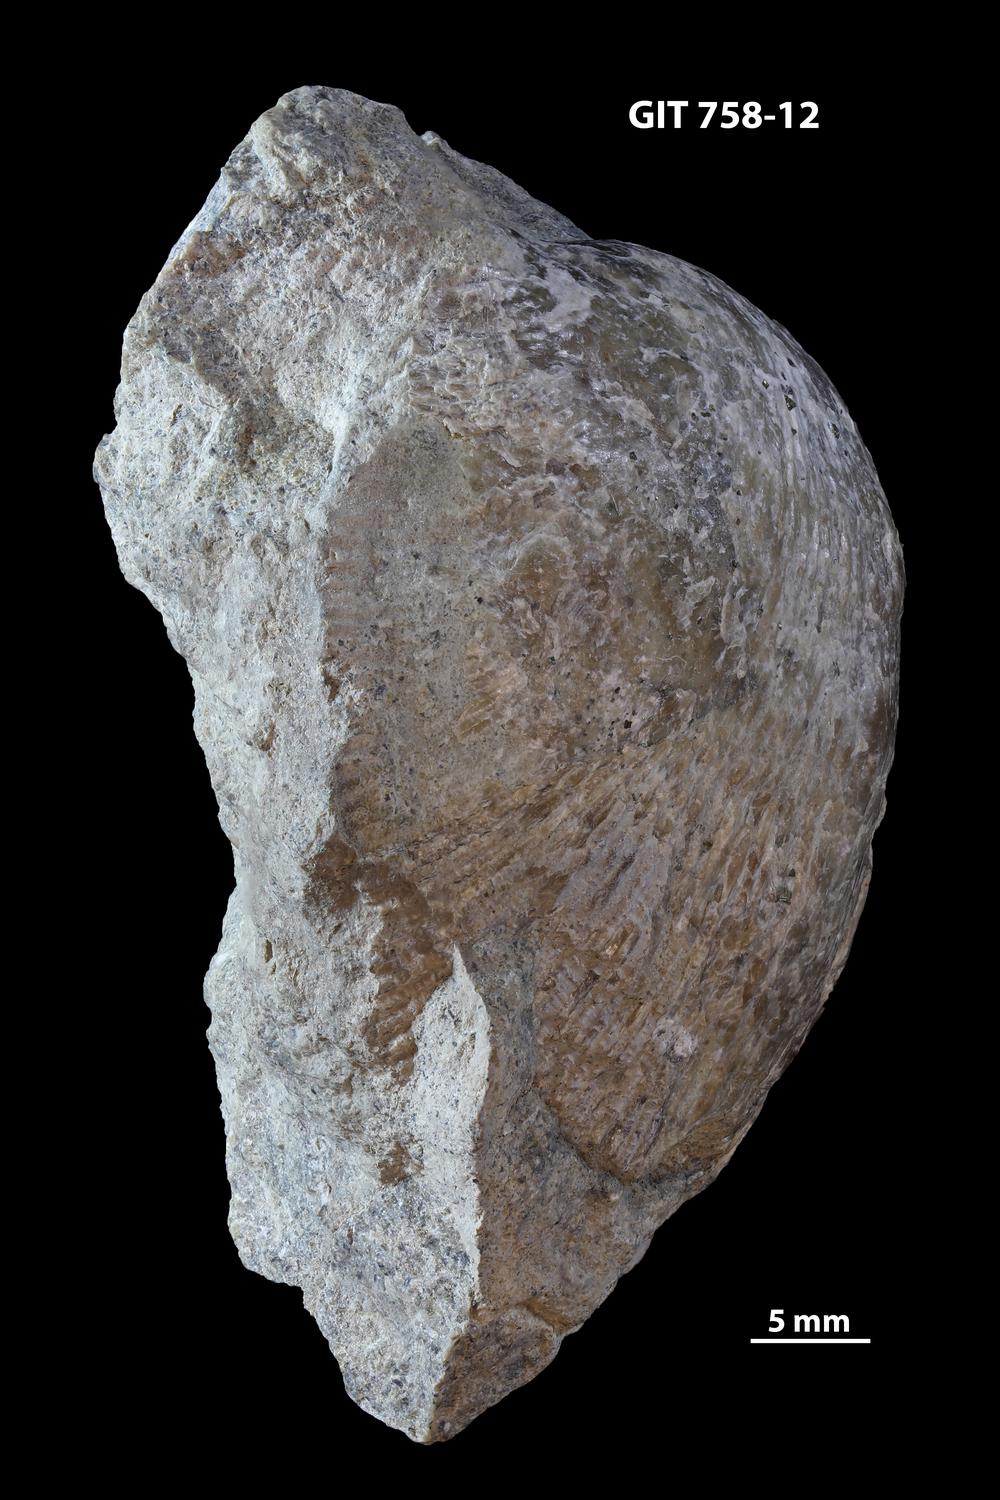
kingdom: Animalia
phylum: Brachiopoda
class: Rhynchonellata
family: Clitambonitidae
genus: Iru
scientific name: Iru Orthisina concava
